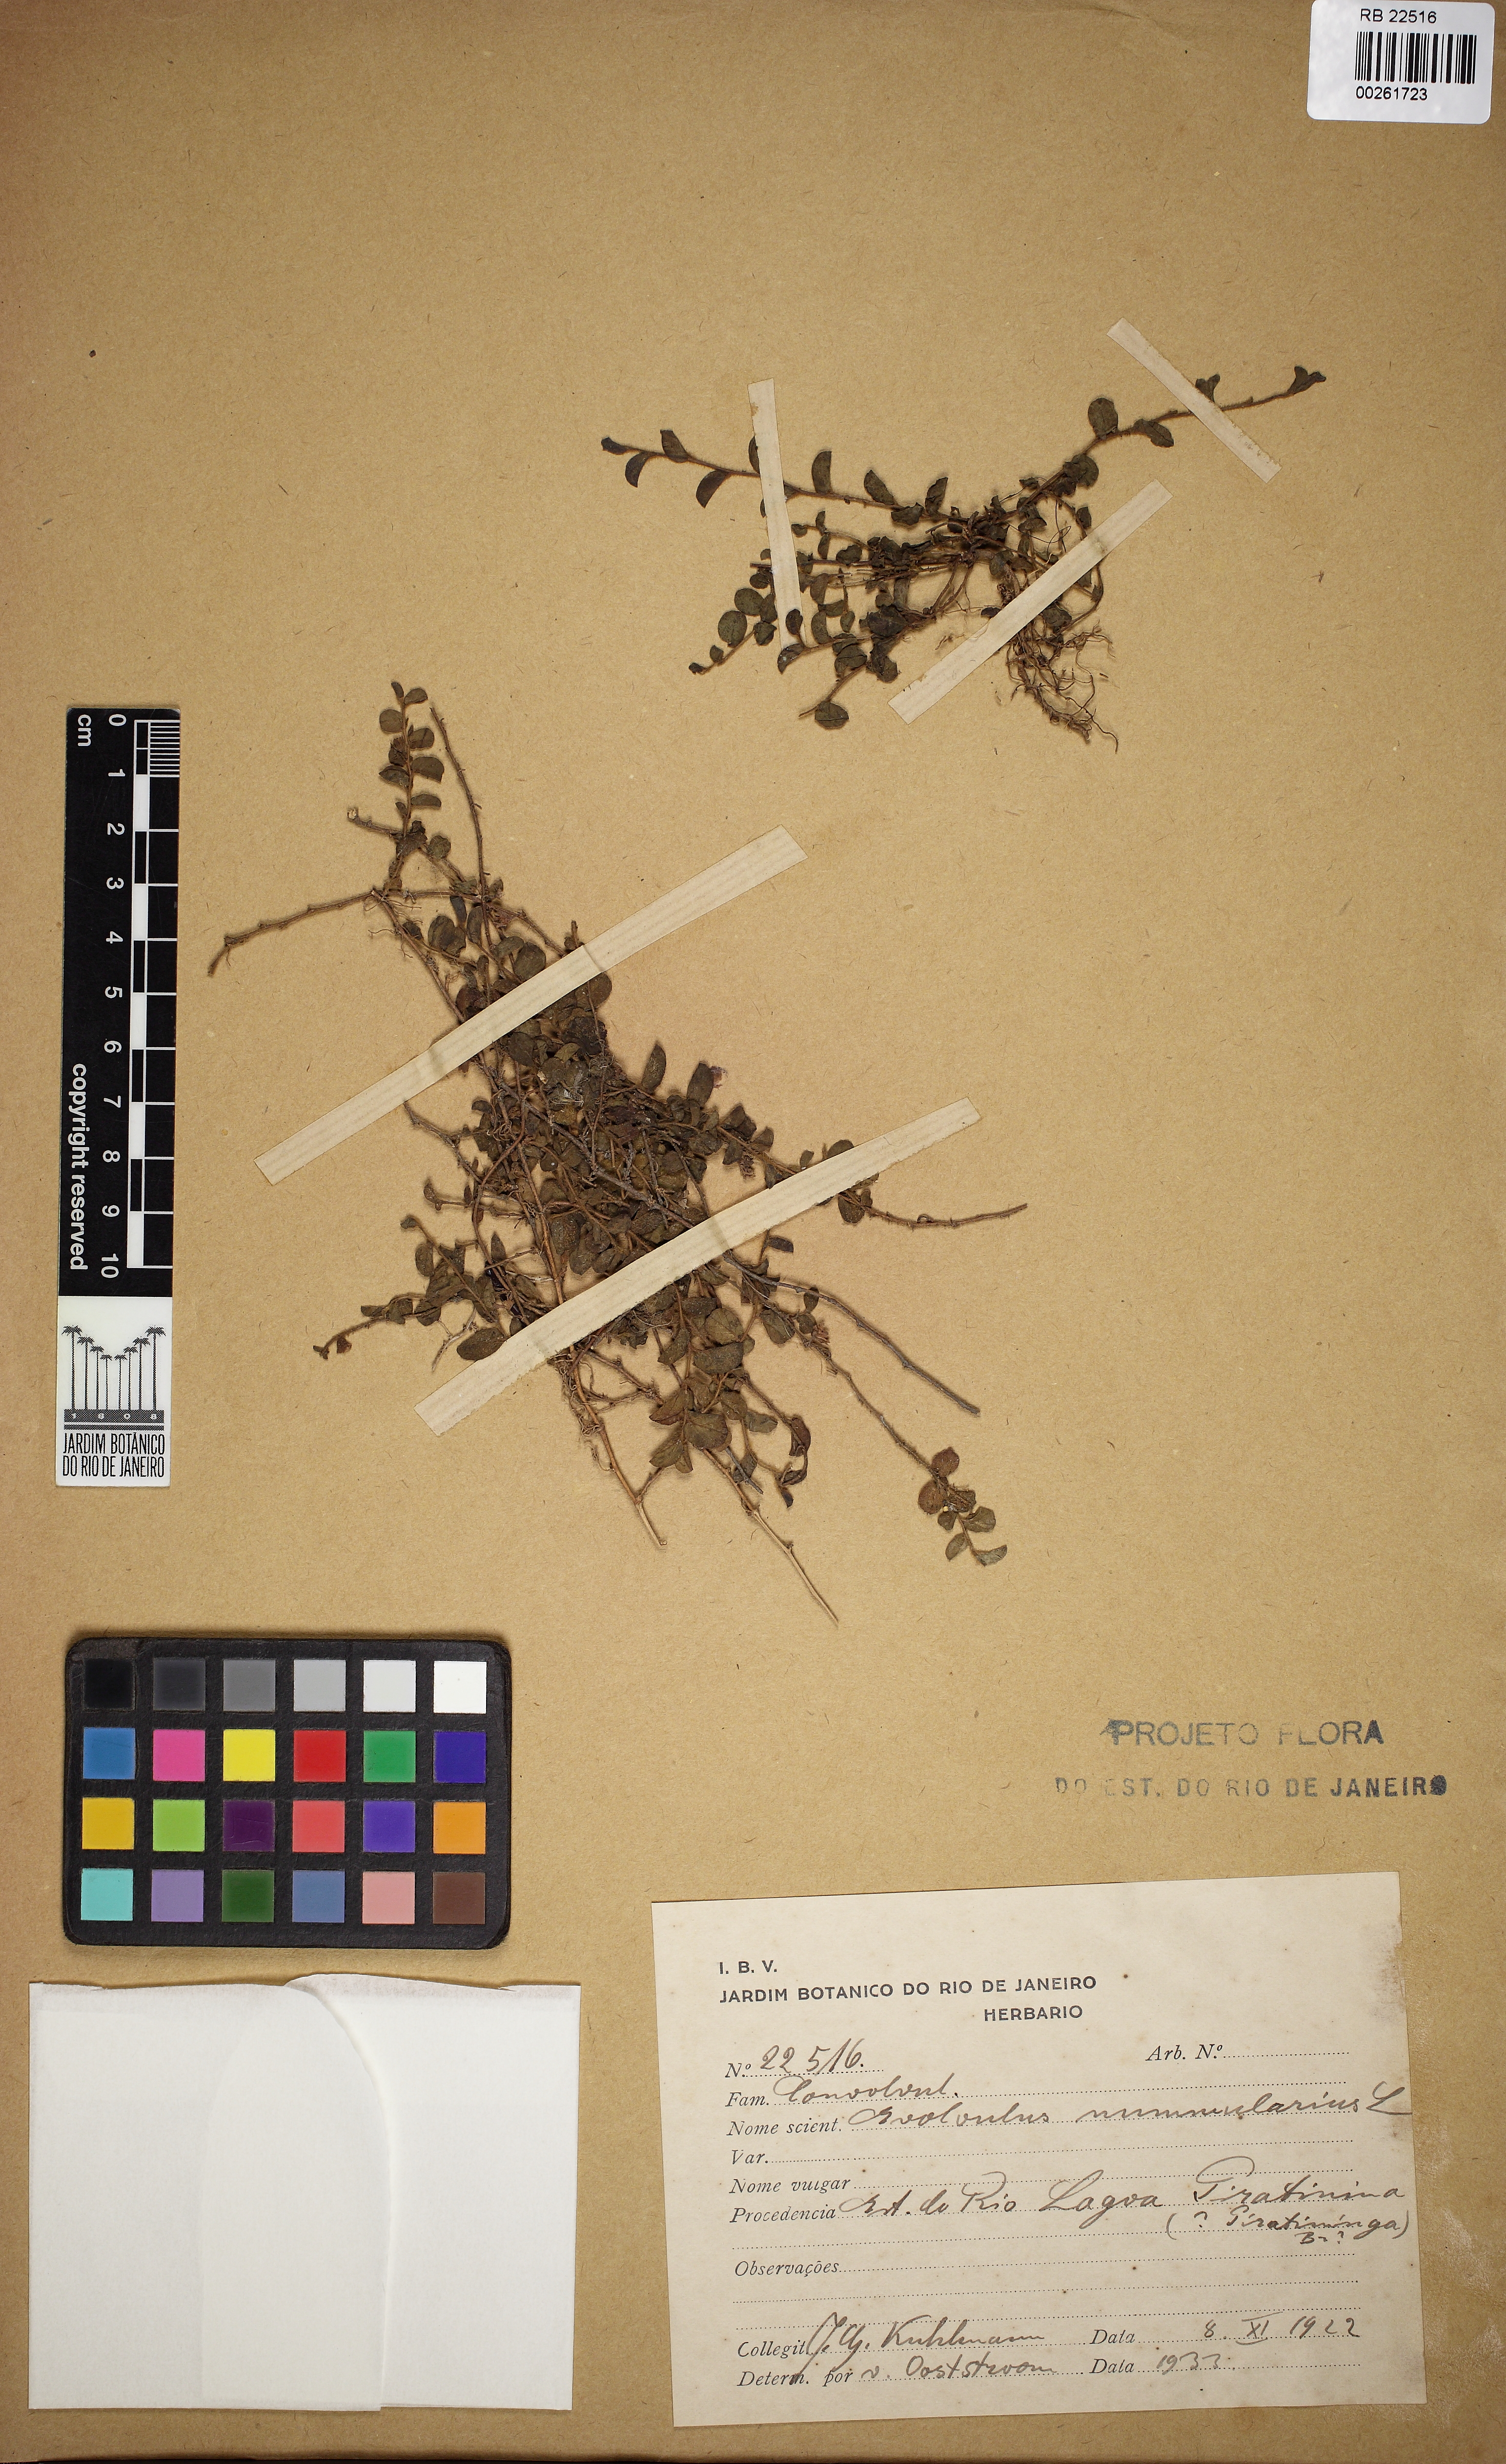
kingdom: Plantae
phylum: Tracheophyta
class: Magnoliopsida
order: Solanales
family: Convolvulaceae
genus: Evolvulus
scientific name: Evolvulus nummularius
